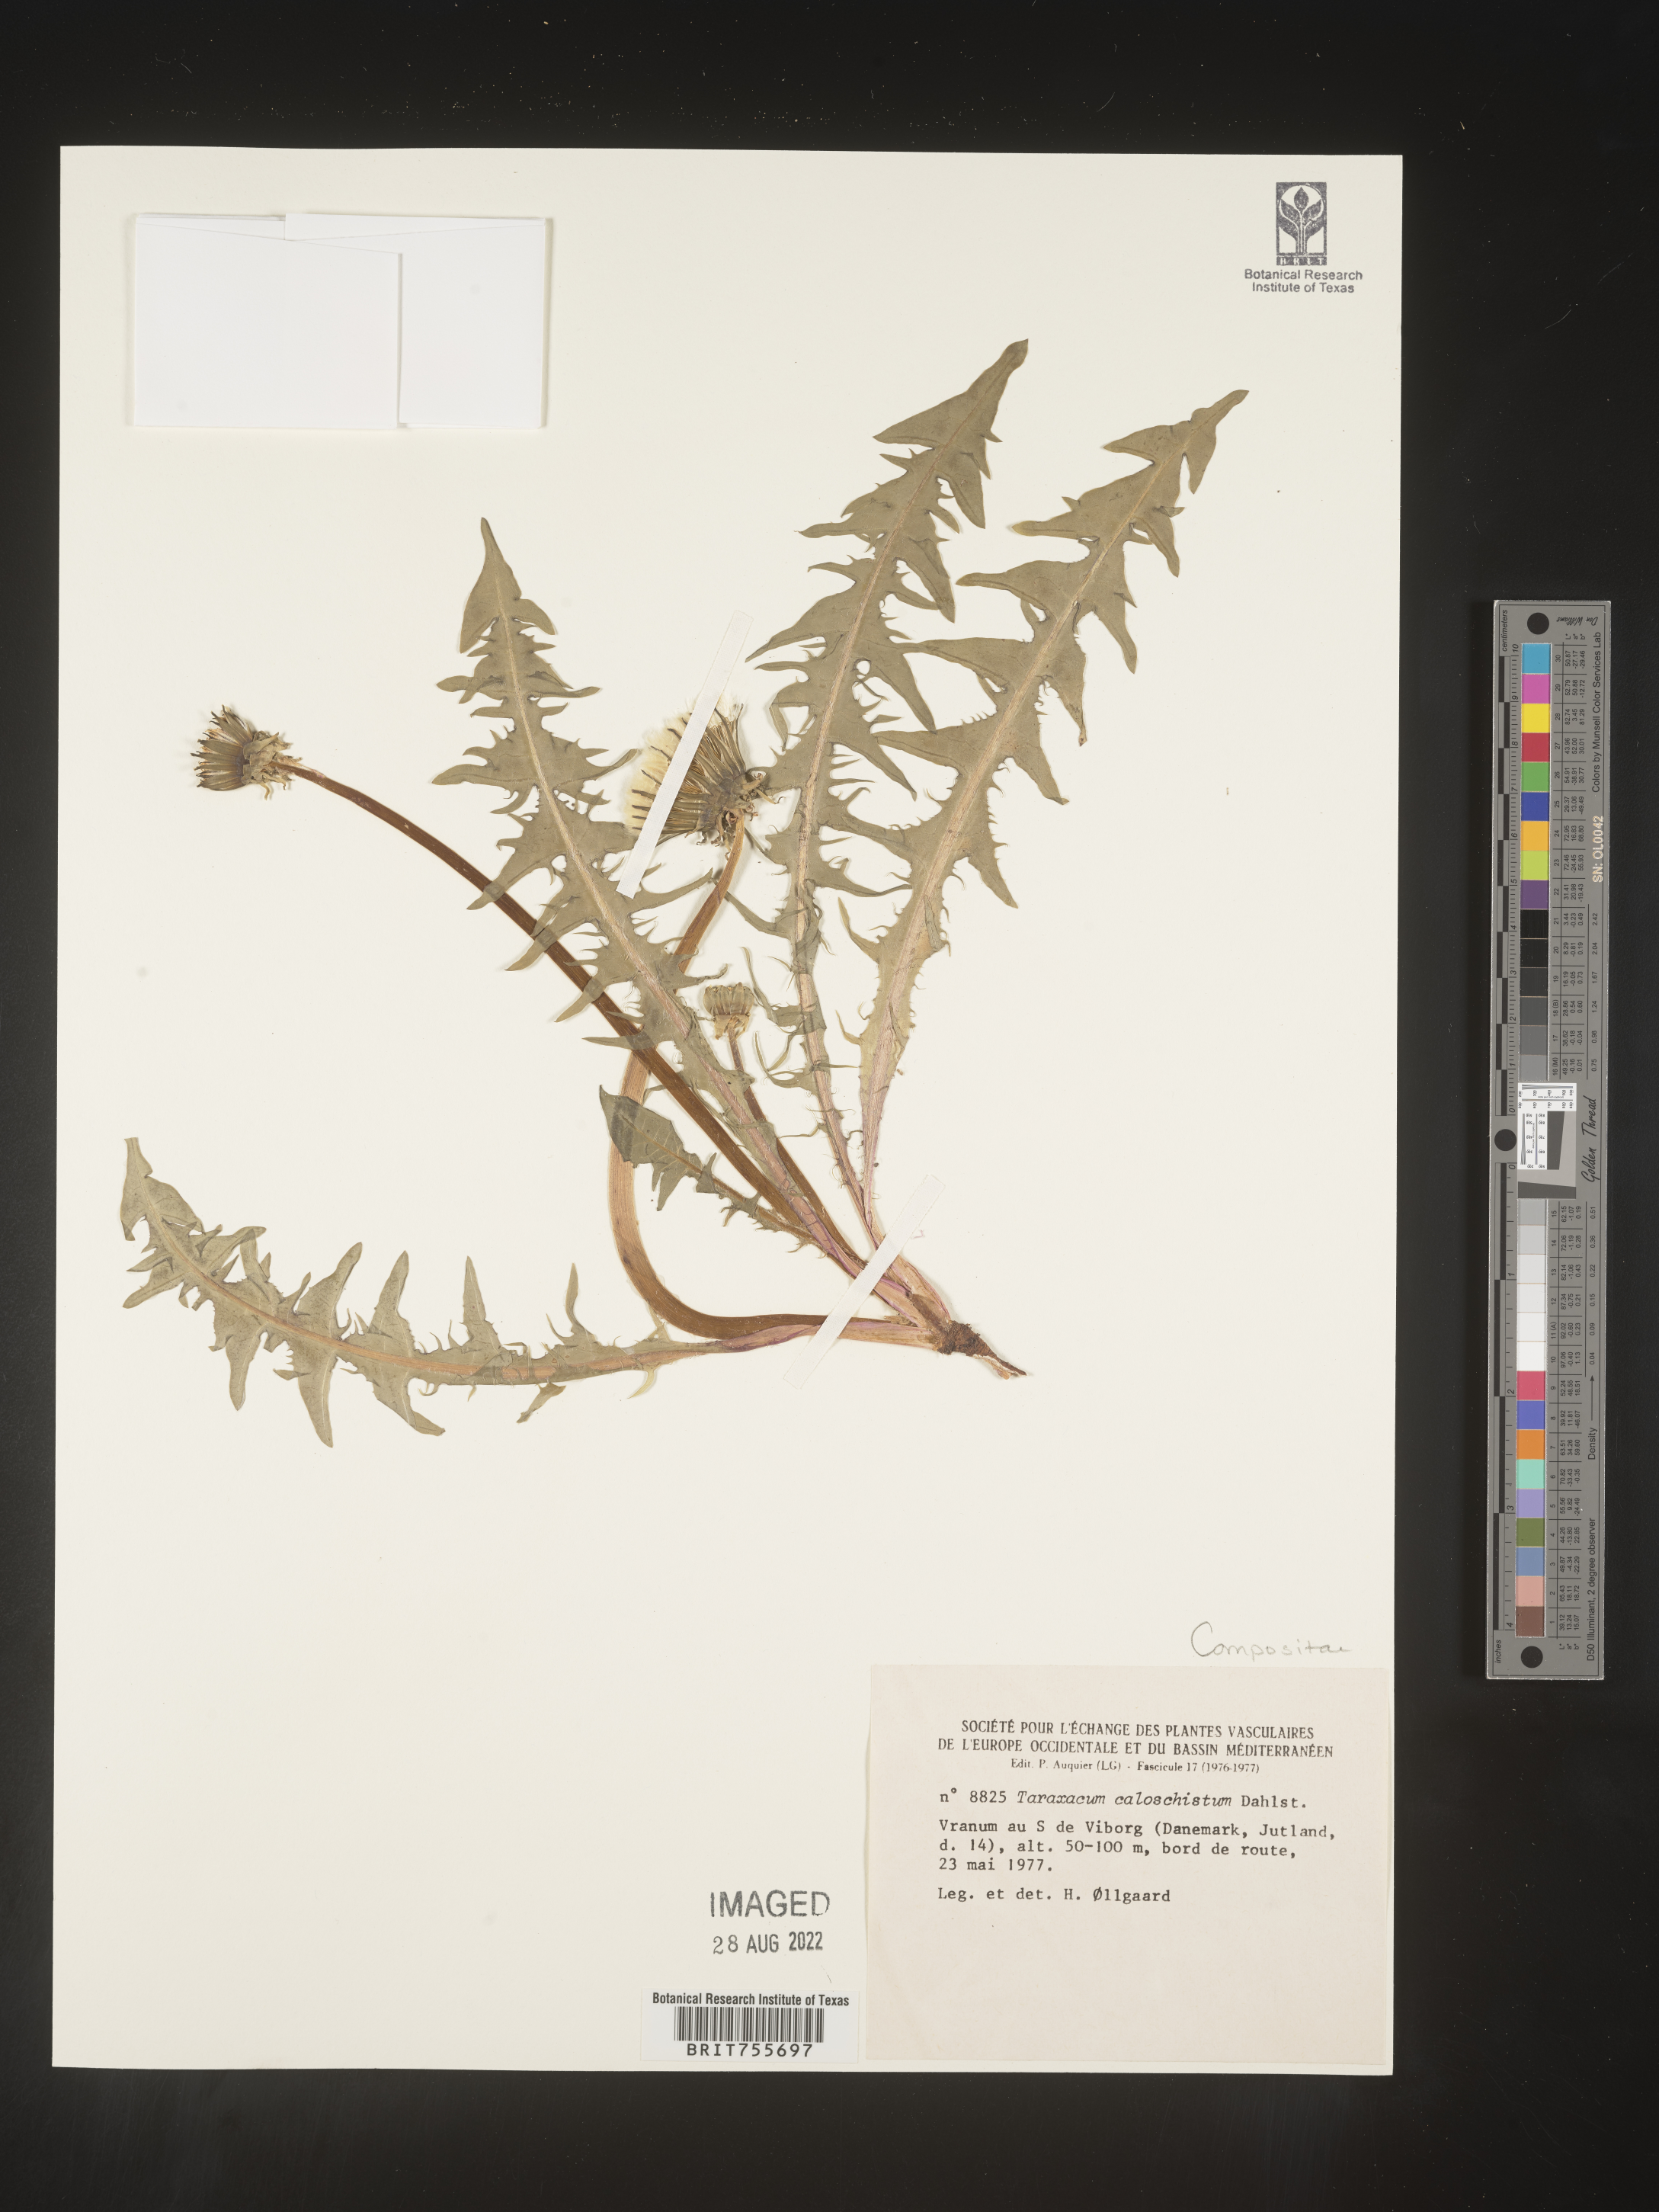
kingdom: Plantae
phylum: Tracheophyta
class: Magnoliopsida
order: Asterales
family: Asteraceae
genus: Taraxacum
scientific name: Taraxacum
